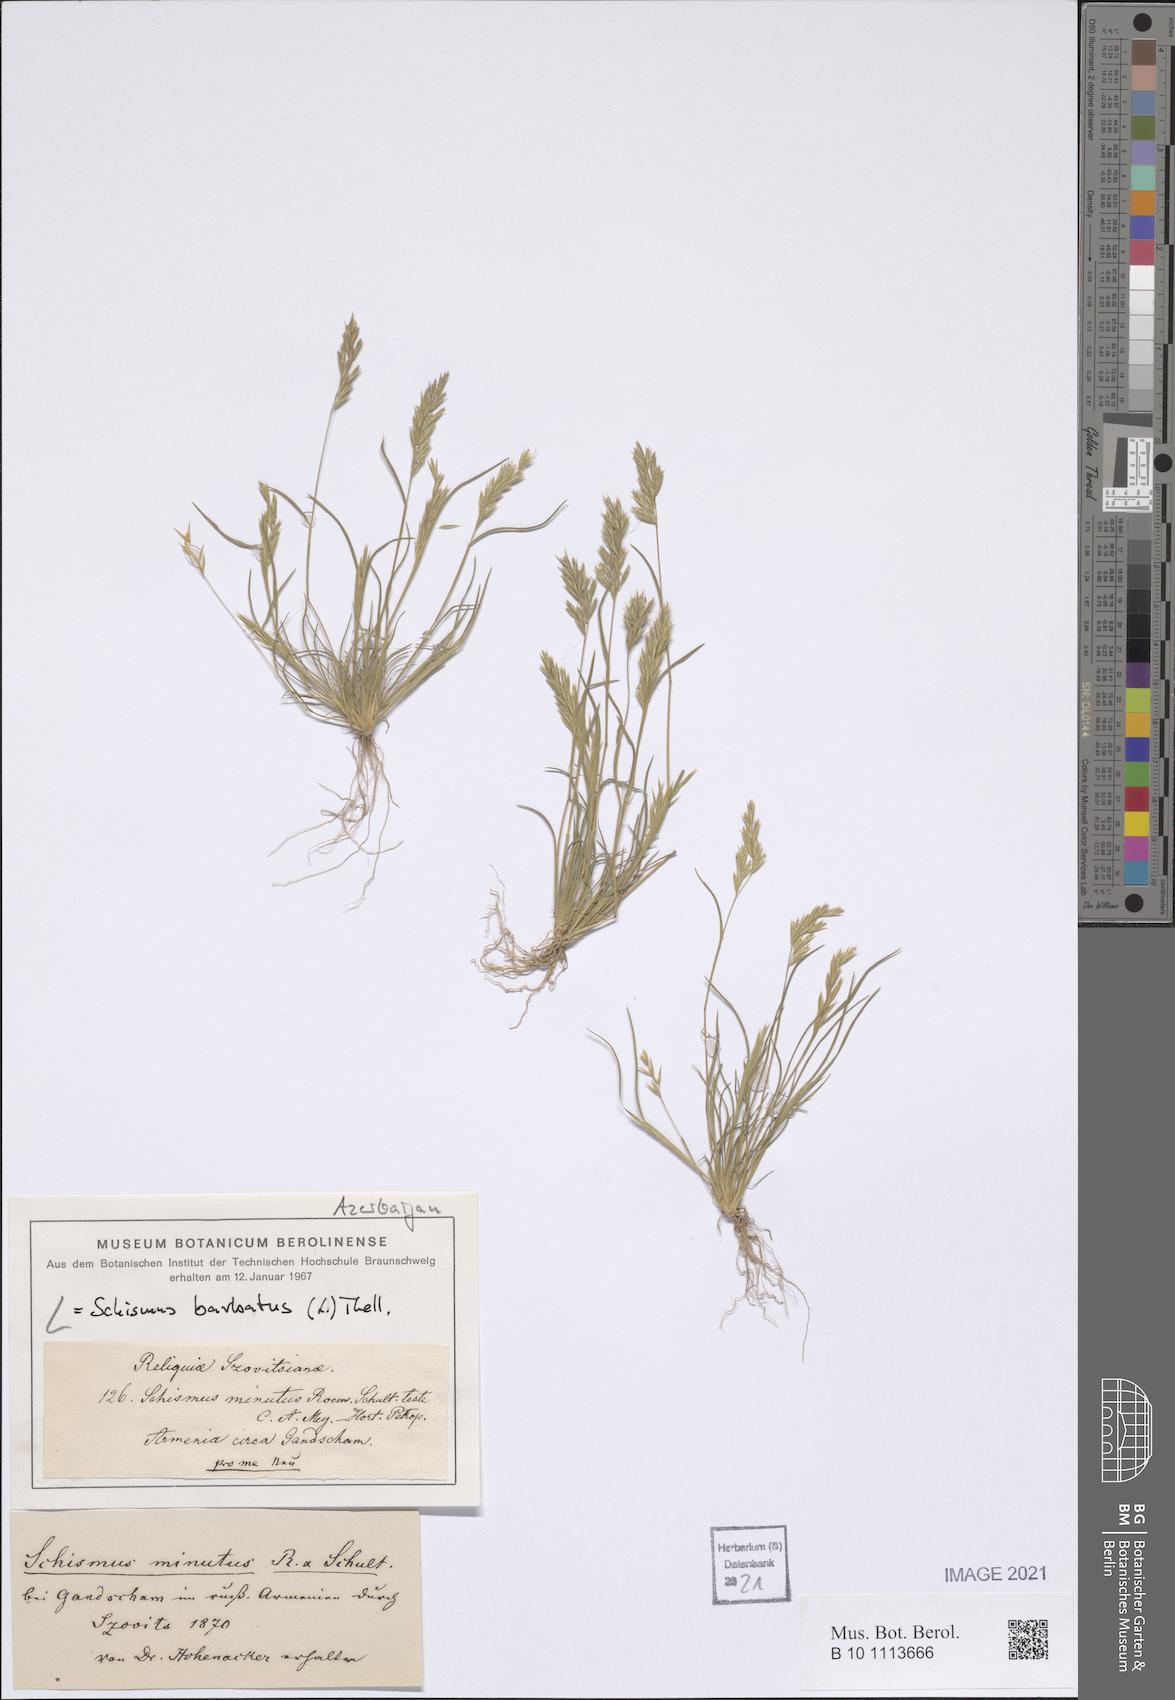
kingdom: Plantae
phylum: Tracheophyta
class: Liliopsida
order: Poales
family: Poaceae
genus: Schismus
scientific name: Schismus barbatus
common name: Kelch-grass
